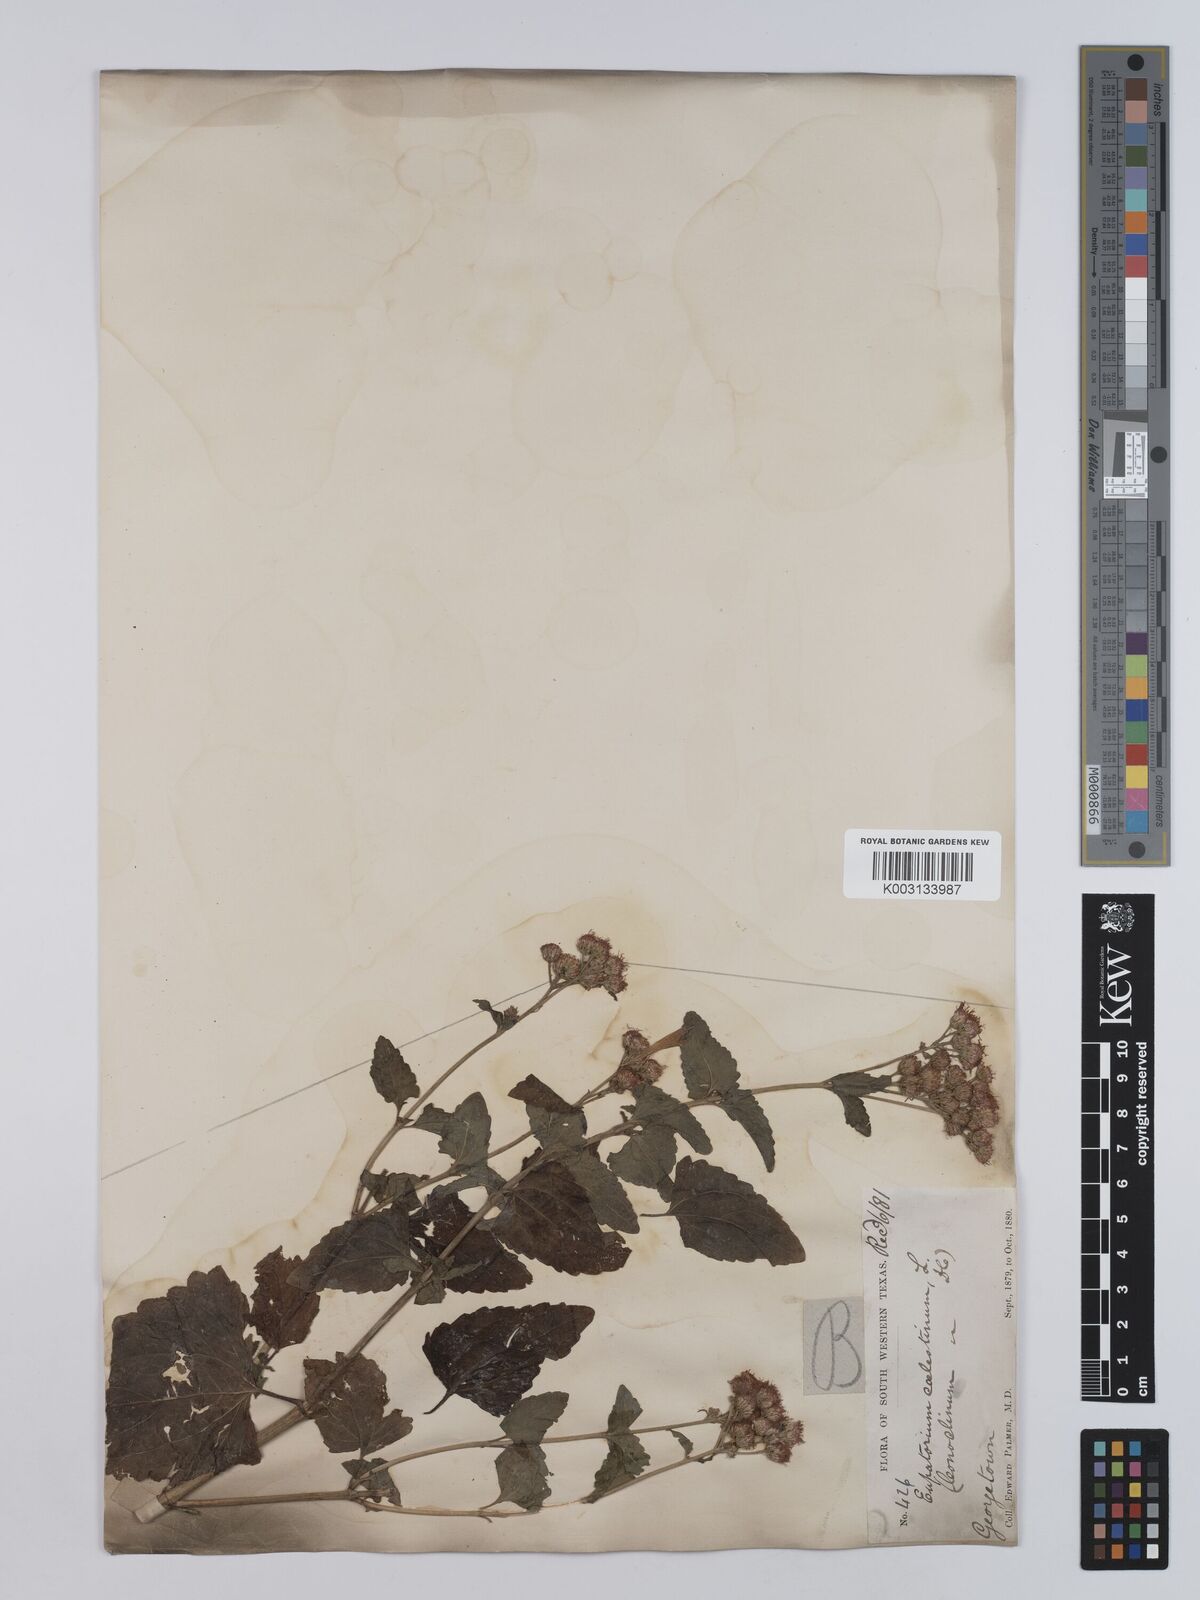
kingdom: Plantae
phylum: Tracheophyta
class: Magnoliopsida
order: Asterales
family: Asteraceae
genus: Conoclinium
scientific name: Conoclinium coelestinum
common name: Blue mistflower
